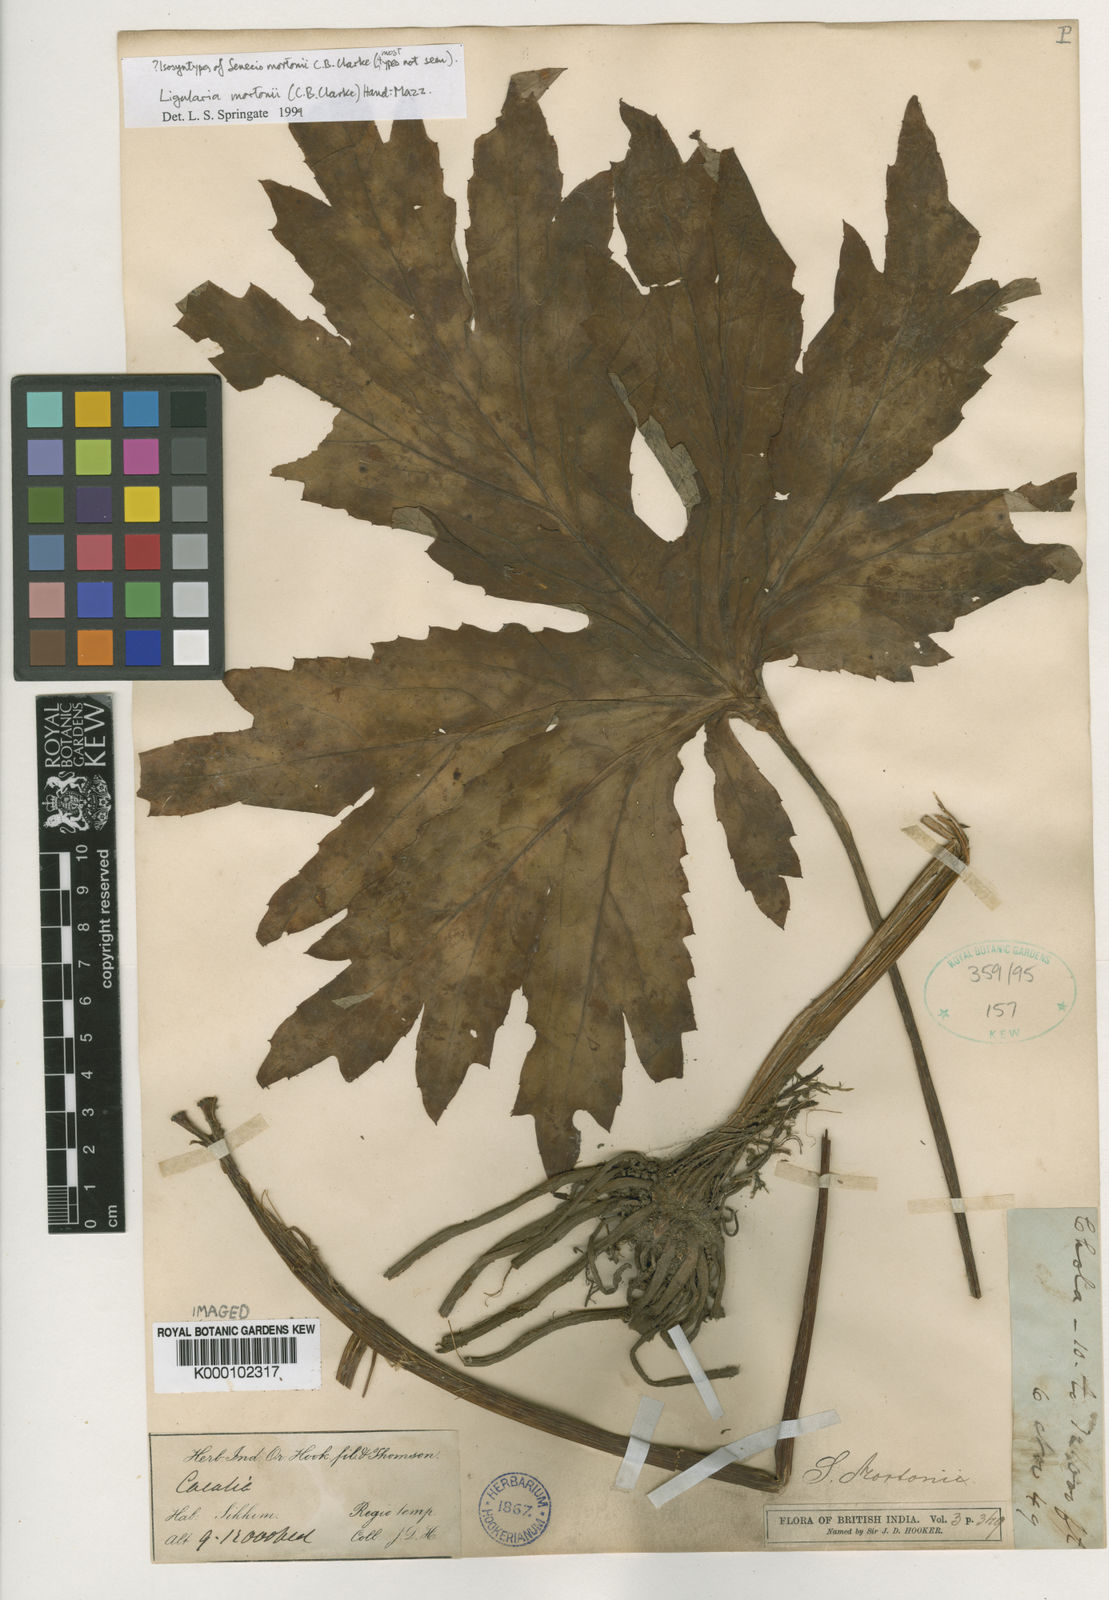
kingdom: Plantae
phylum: Tracheophyta
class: Magnoliopsida
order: Asterales
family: Asteraceae
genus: Ligularia
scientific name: Ligularia mortonii
